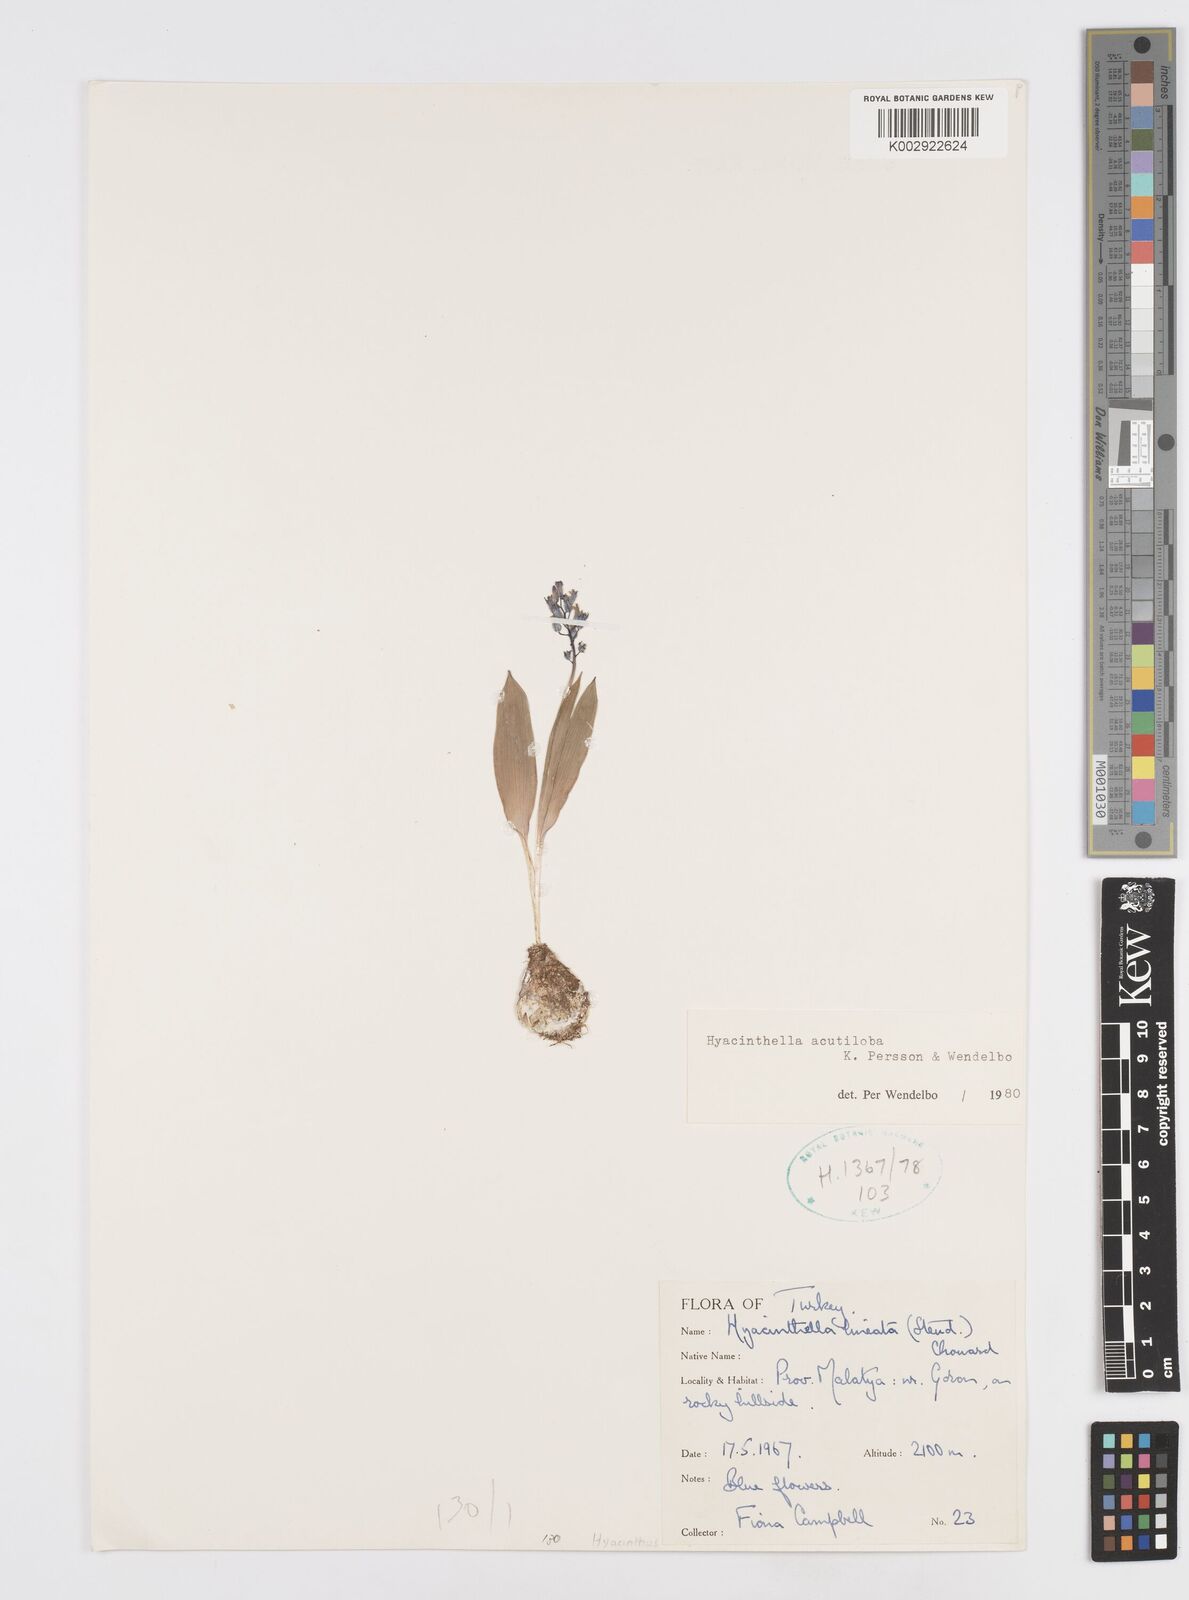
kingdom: Plantae
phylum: Tracheophyta
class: Liliopsida
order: Asparagales
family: Asparagaceae
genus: Hyacinthella
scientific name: Hyacinthella acutiloba
